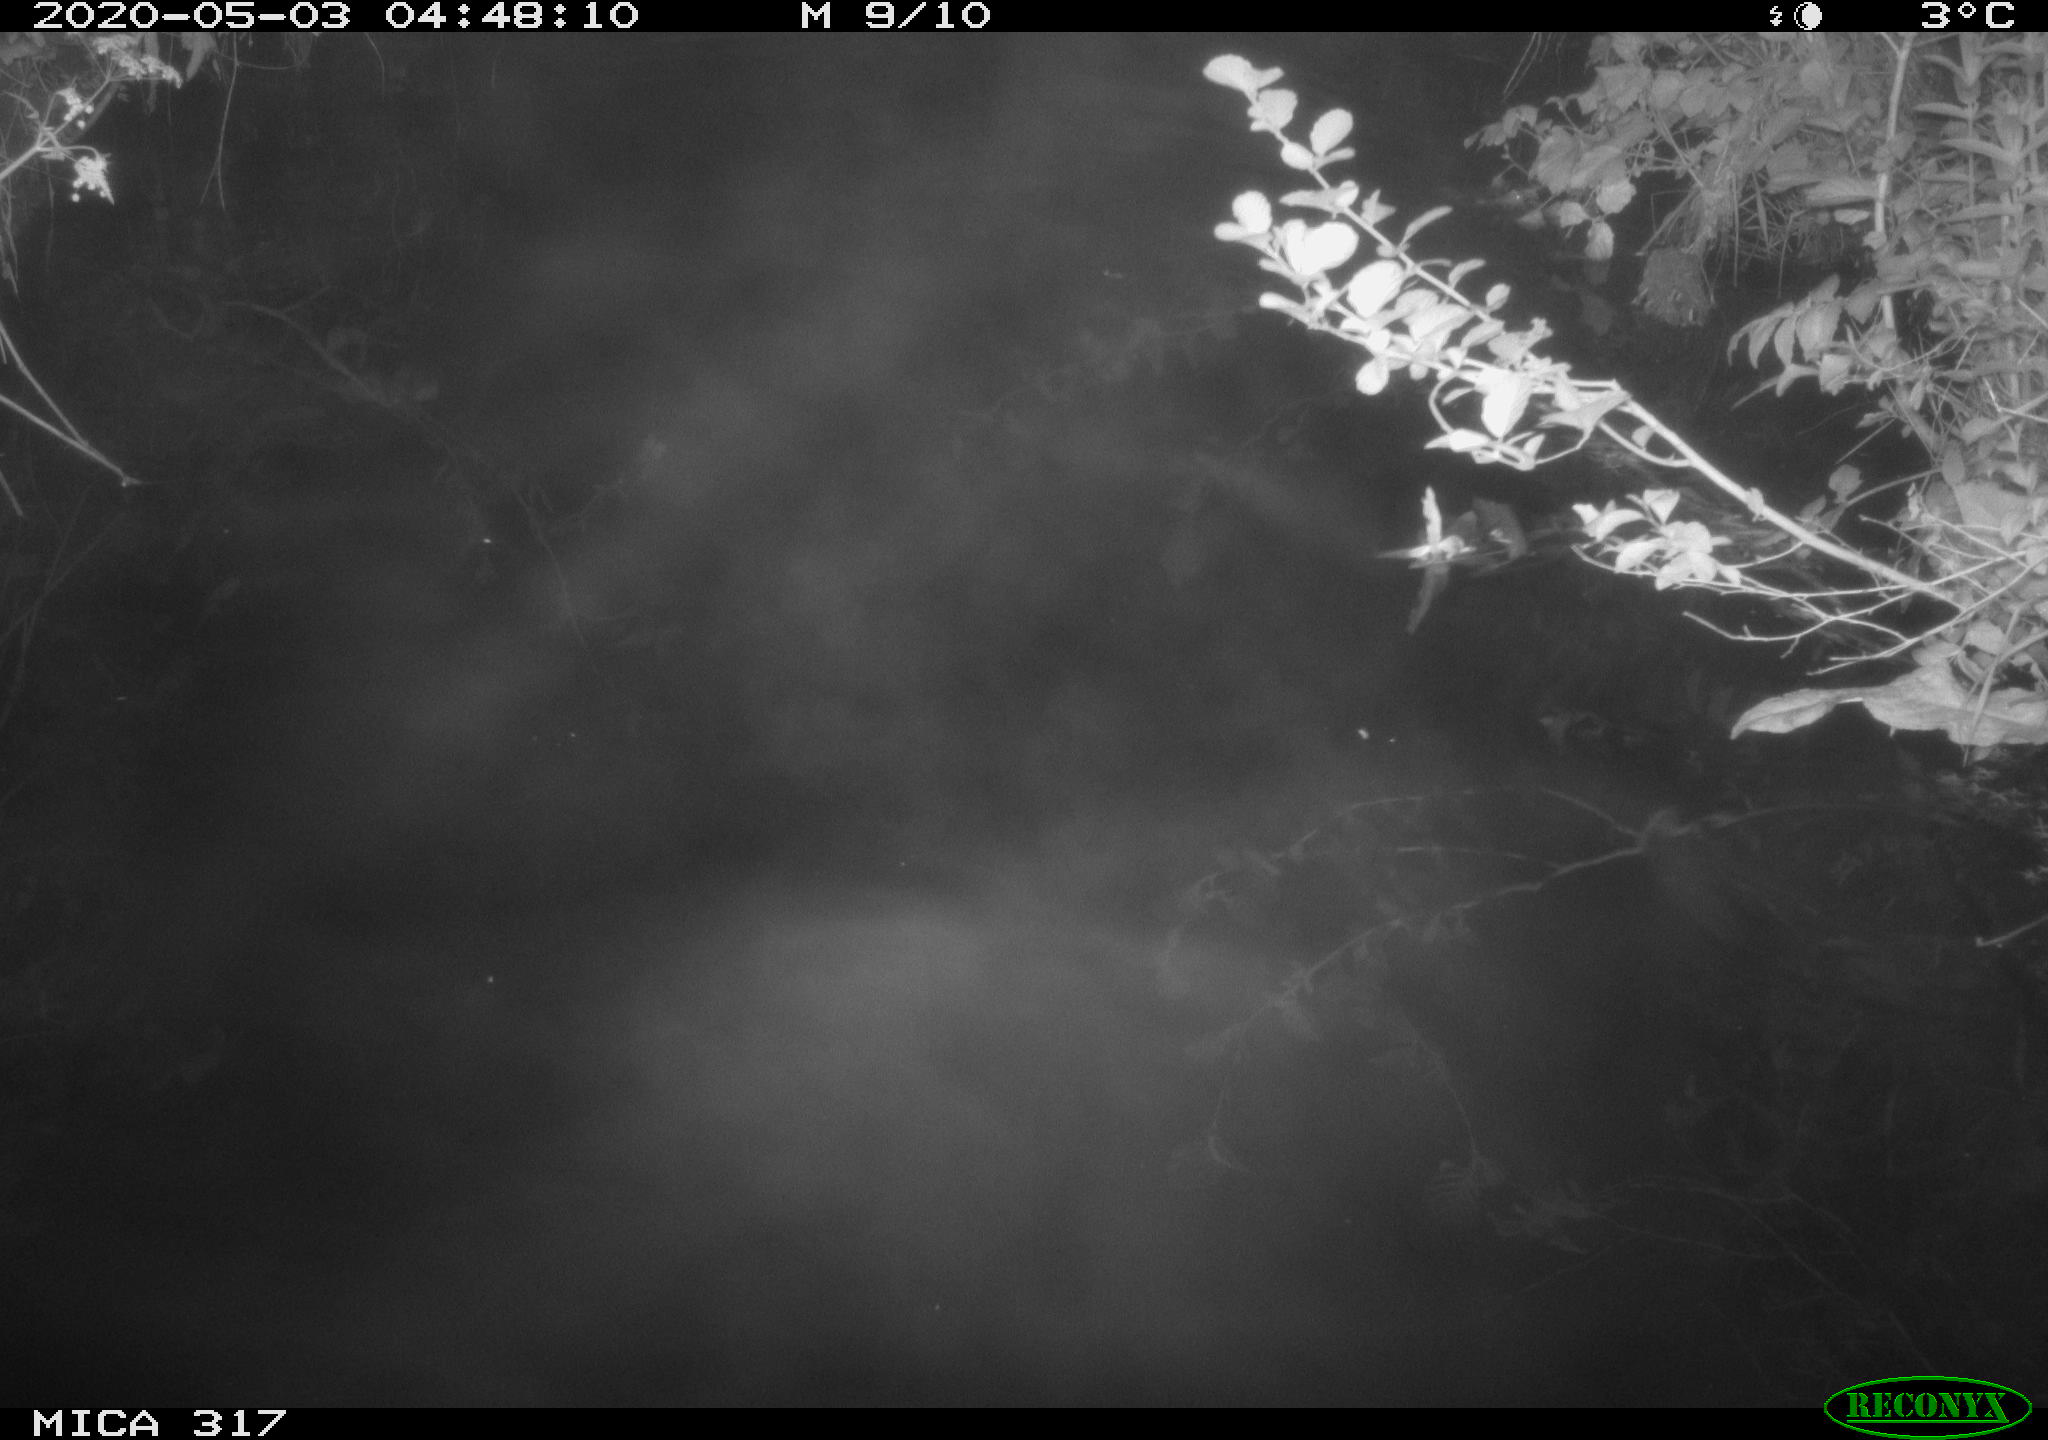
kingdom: Animalia
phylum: Chordata
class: Aves
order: Anseriformes
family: Anatidae
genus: Anas
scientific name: Anas platyrhynchos
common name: Mallard
